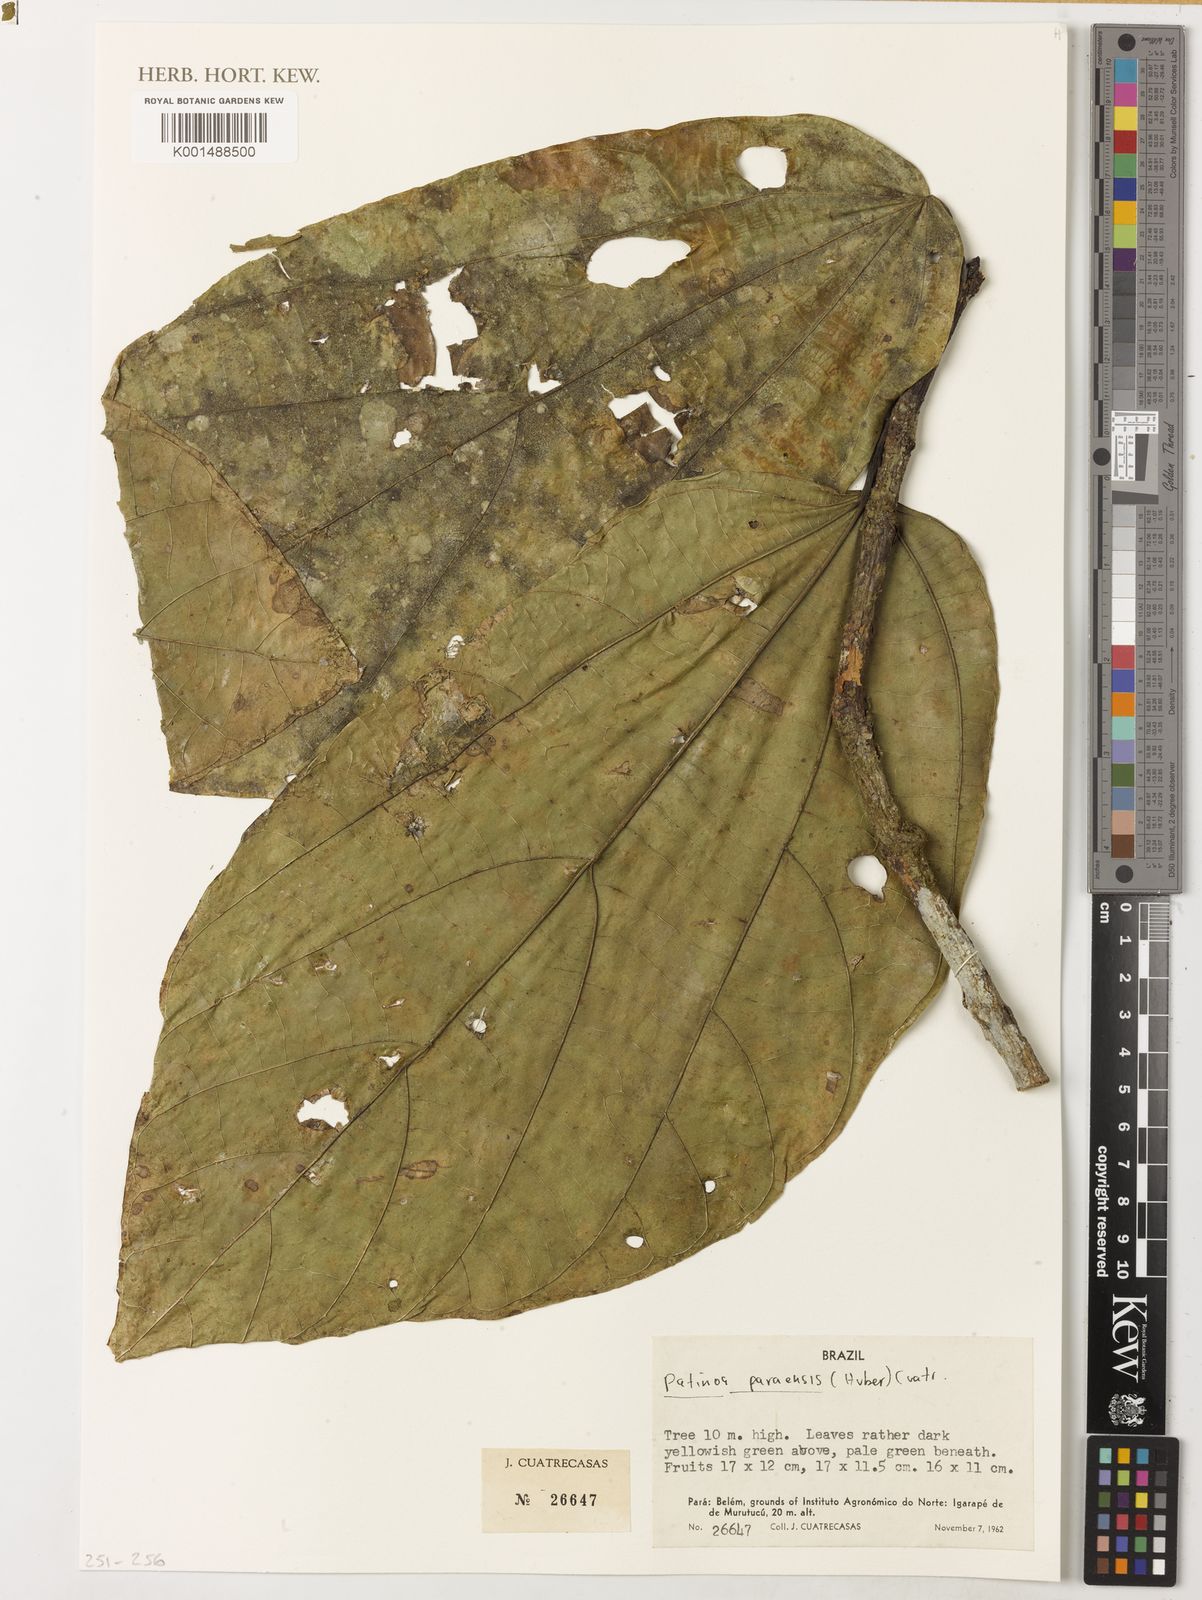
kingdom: Plantae
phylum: Tracheophyta
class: Magnoliopsida
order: Malvales
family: Malvaceae
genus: Patinoa
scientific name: Patinoa paraensis
